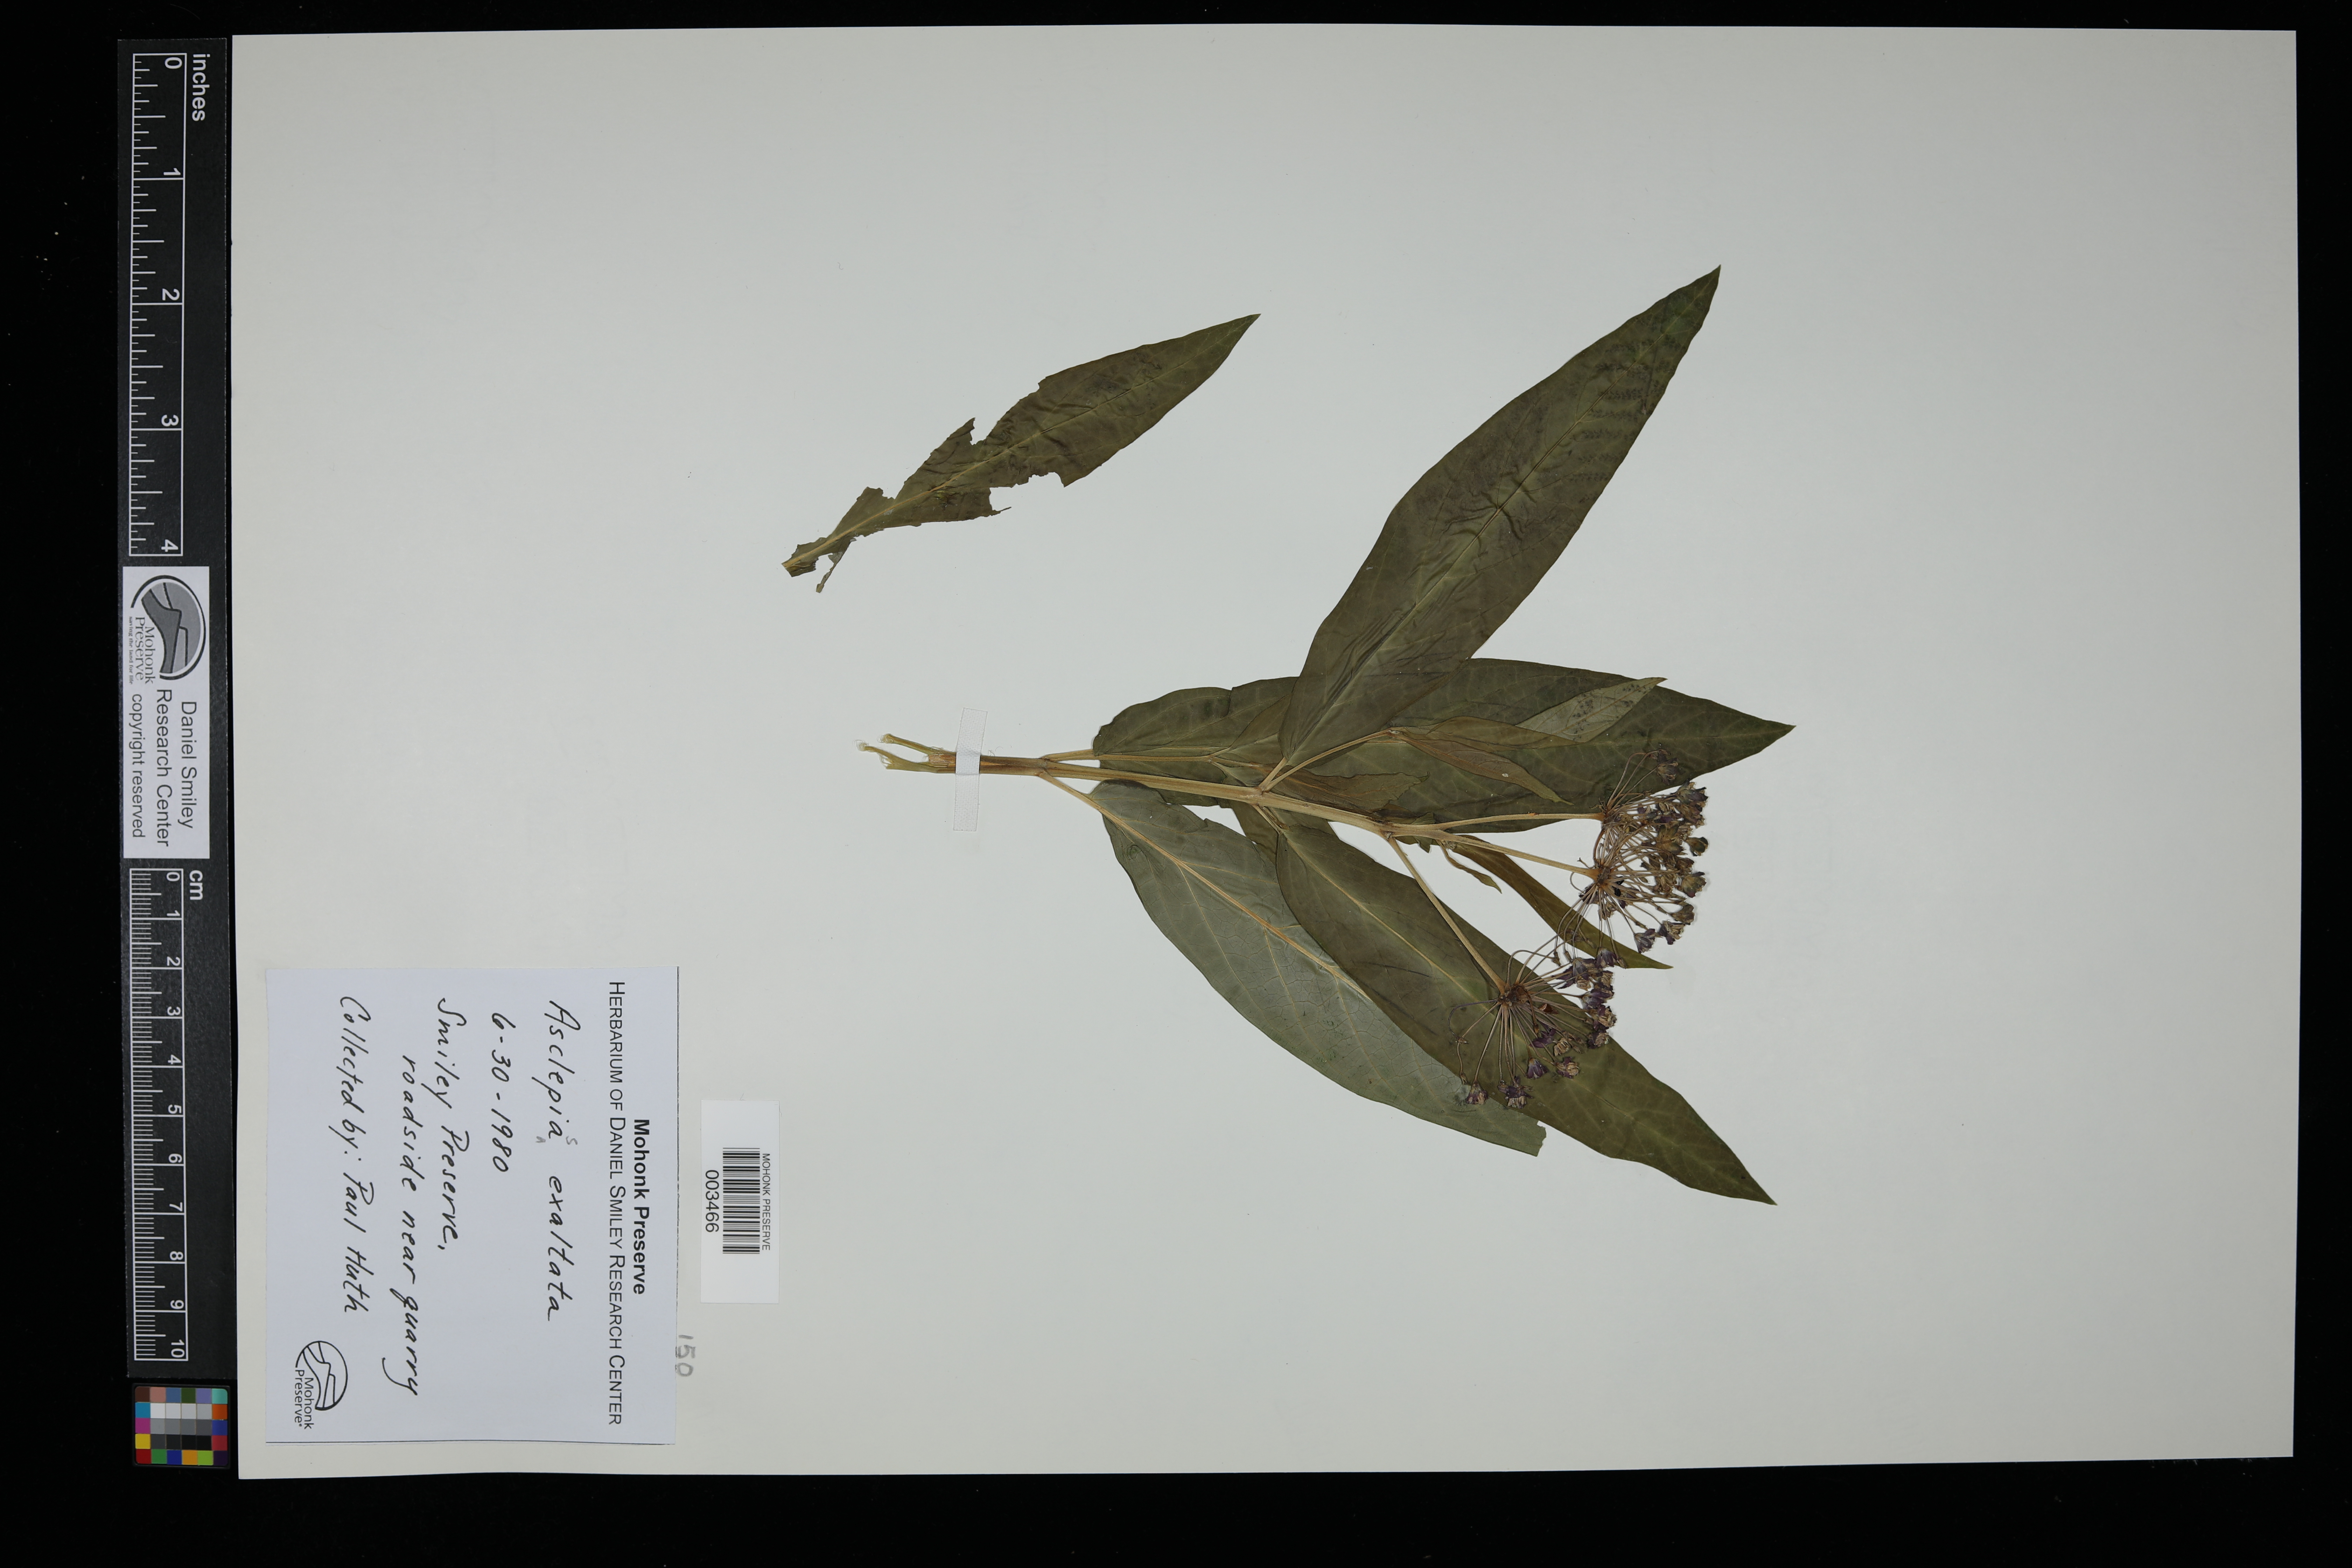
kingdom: Plantae
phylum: Tracheophyta
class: Magnoliopsida
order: Gentianales
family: Apocynaceae
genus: Asclepias
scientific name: Asclepias exaltata
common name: Poke milkweed
